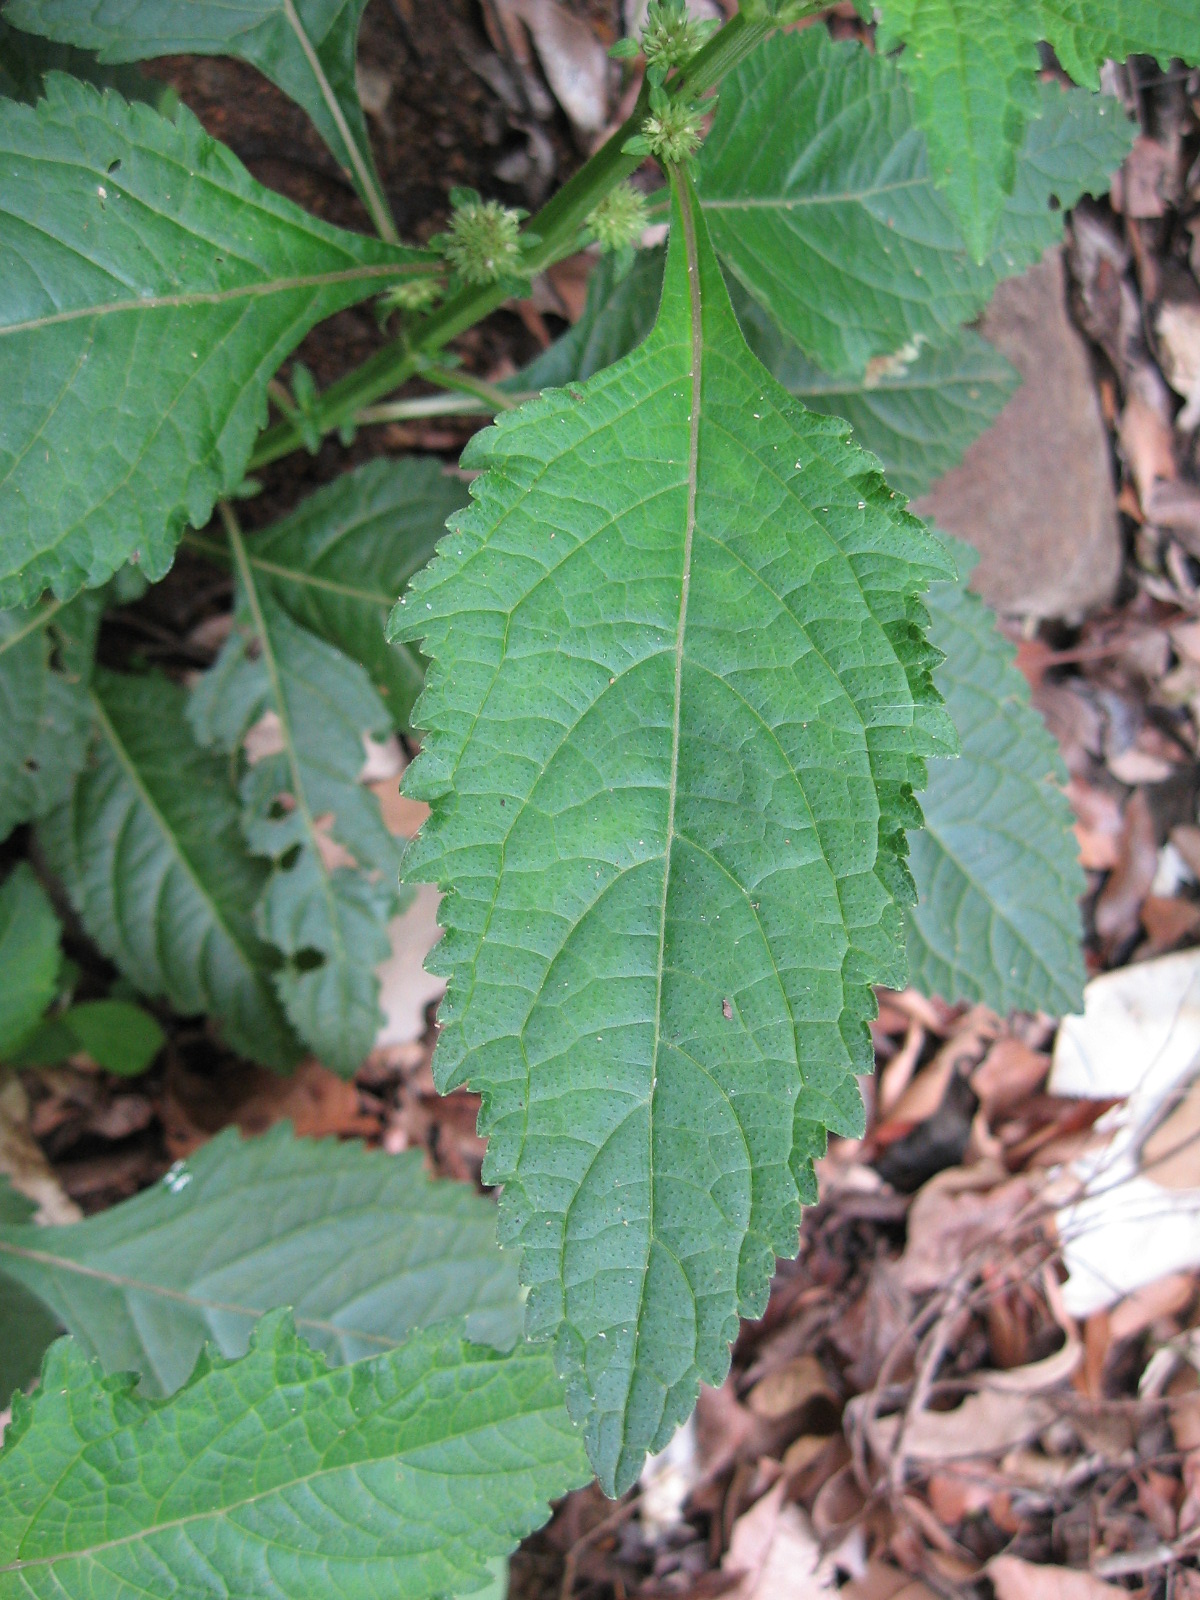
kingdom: Plantae
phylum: Tracheophyta
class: Magnoliopsida
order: Lamiales
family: Lamiaceae
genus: Hyptis
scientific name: Hyptis capitata
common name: False ironwort
